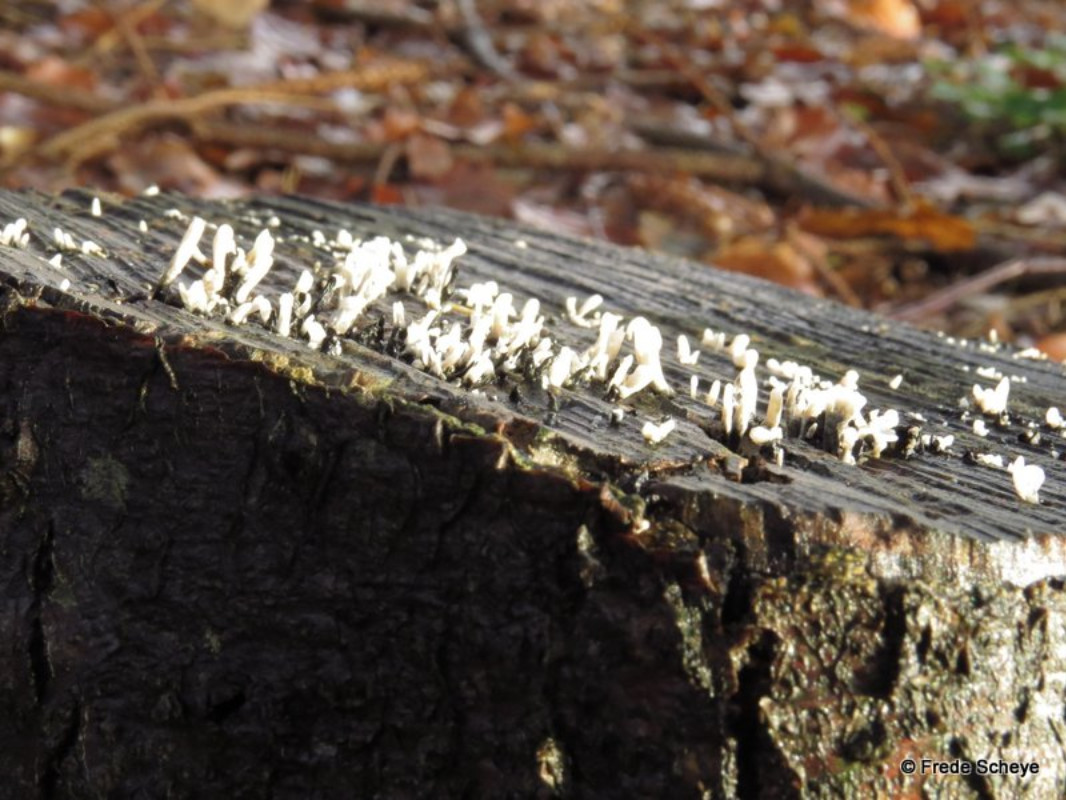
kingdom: Fungi
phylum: Ascomycota
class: Sordariomycetes
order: Xylariales
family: Xylariaceae
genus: Xylaria
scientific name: Xylaria hypoxylon
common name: grenet stødsvamp
